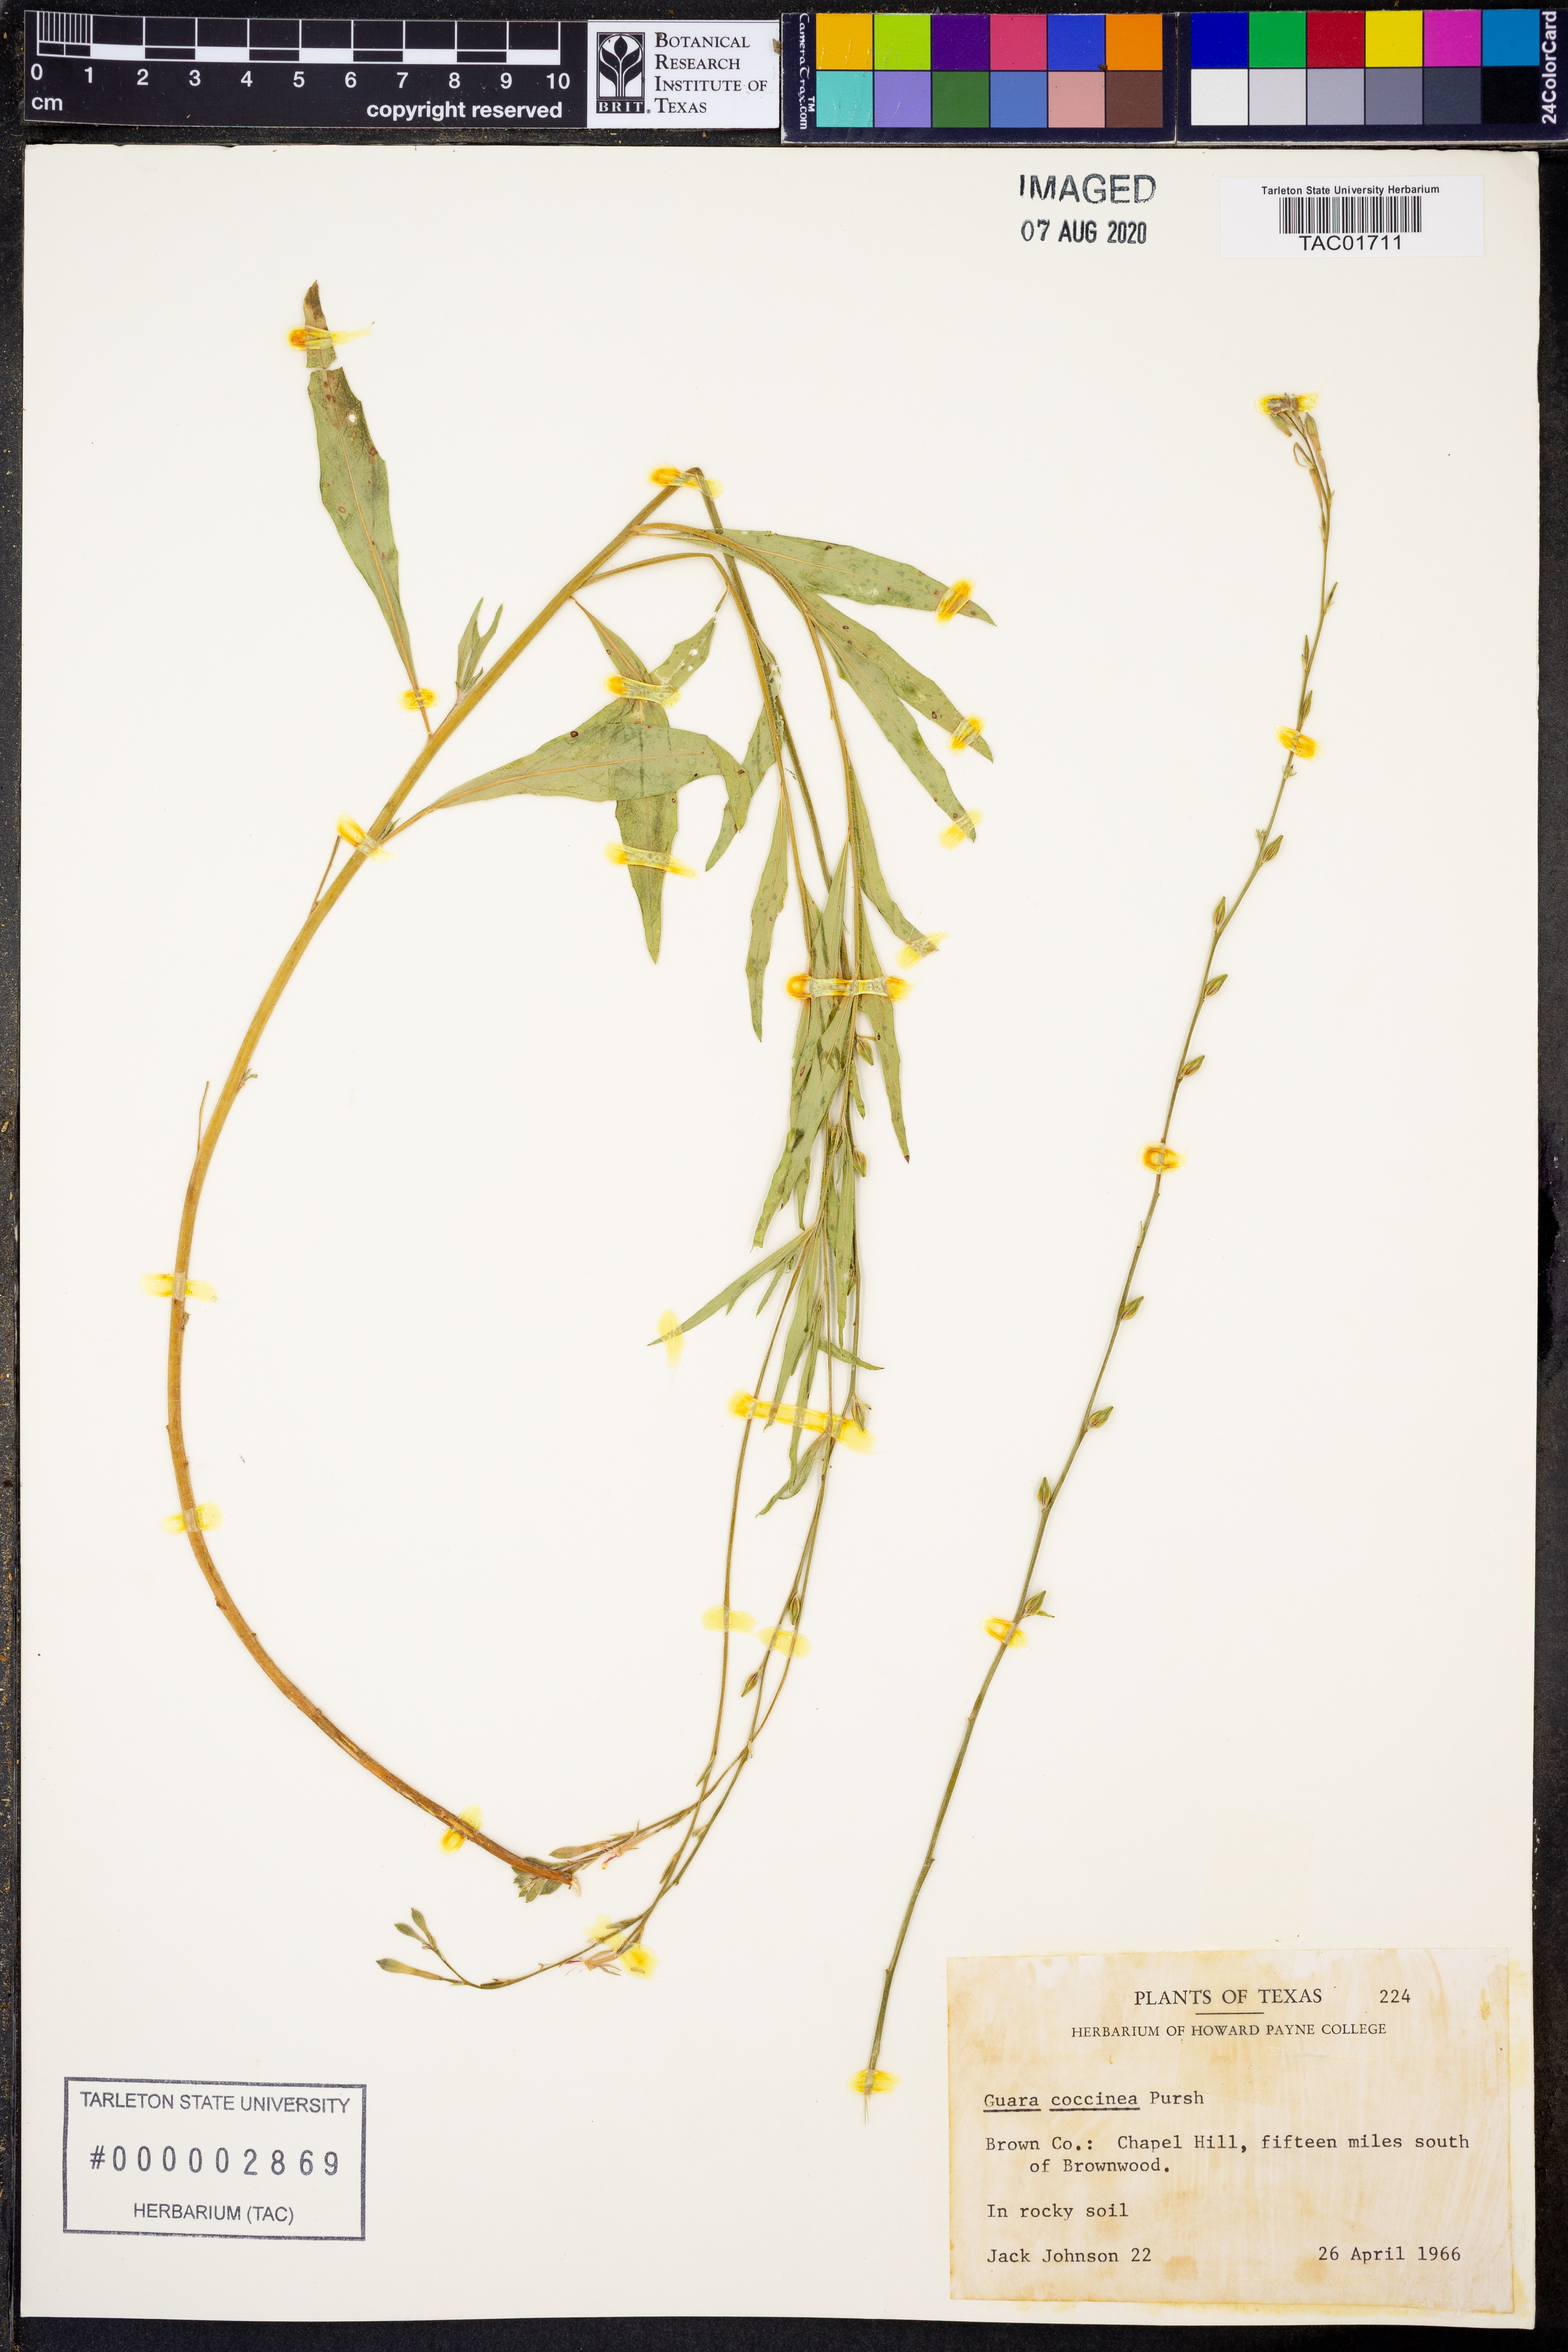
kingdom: Plantae
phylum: Tracheophyta
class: Magnoliopsida
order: Myrtales
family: Onagraceae
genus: Oenothera
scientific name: Oenothera suffrutescens
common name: Scarlet beeblossom
